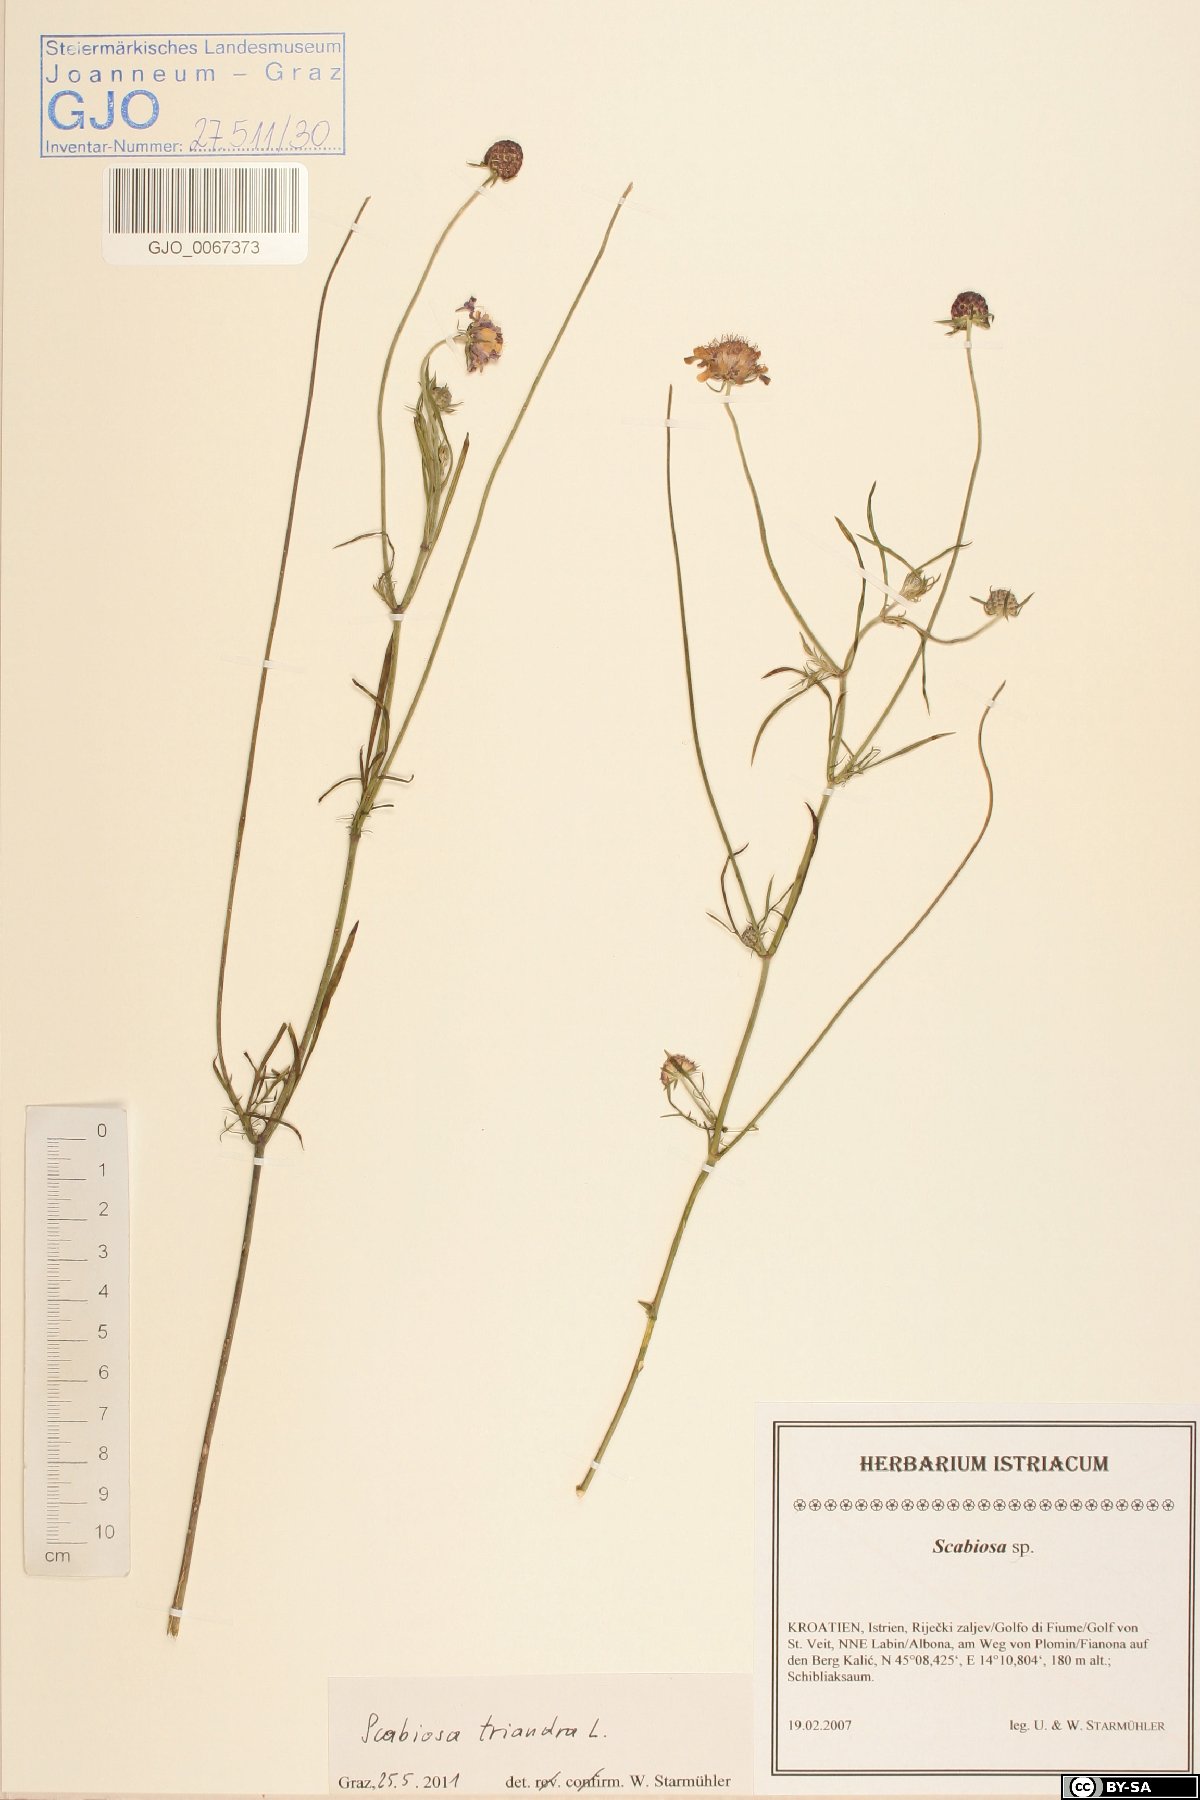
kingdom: Plantae
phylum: Tracheophyta
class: Magnoliopsida
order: Dipsacales
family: Caprifoliaceae
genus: Scabiosa
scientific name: Scabiosa triandra
